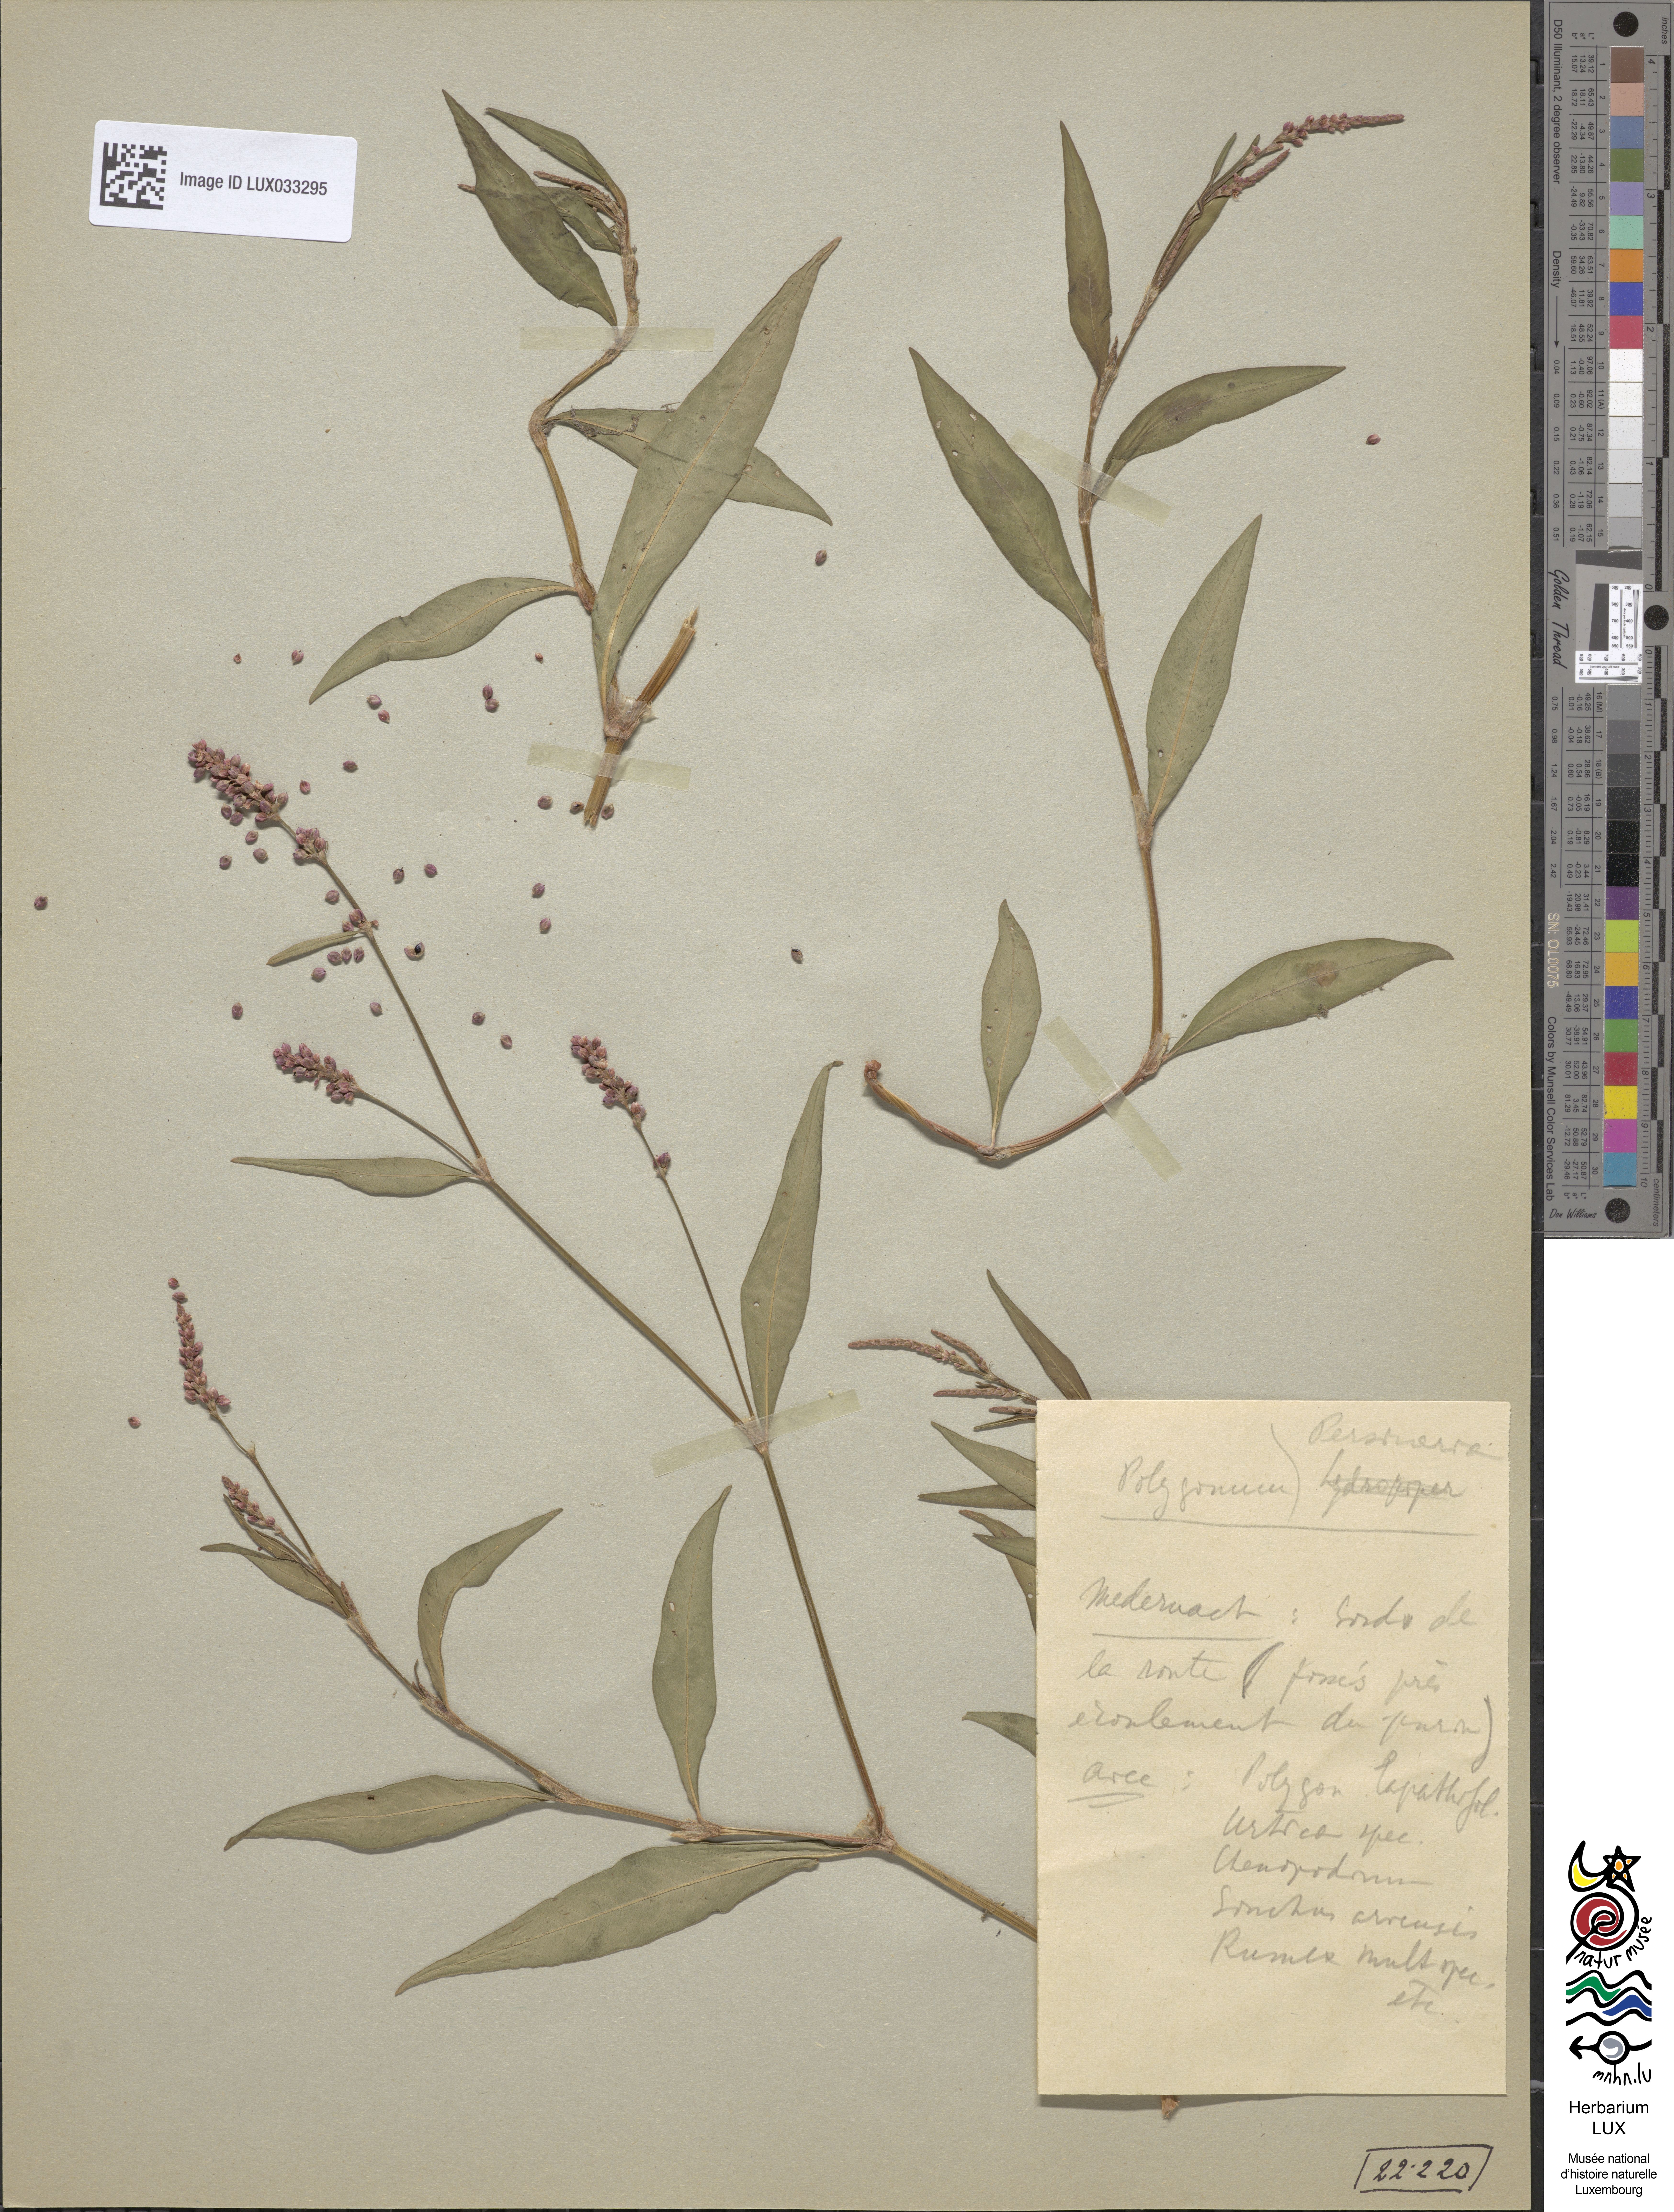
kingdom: Plantae
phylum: Tracheophyta
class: Magnoliopsida
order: Caryophyllales
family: Polygonaceae
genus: Persicaria
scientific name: Persicaria maculosa
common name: Redshank
